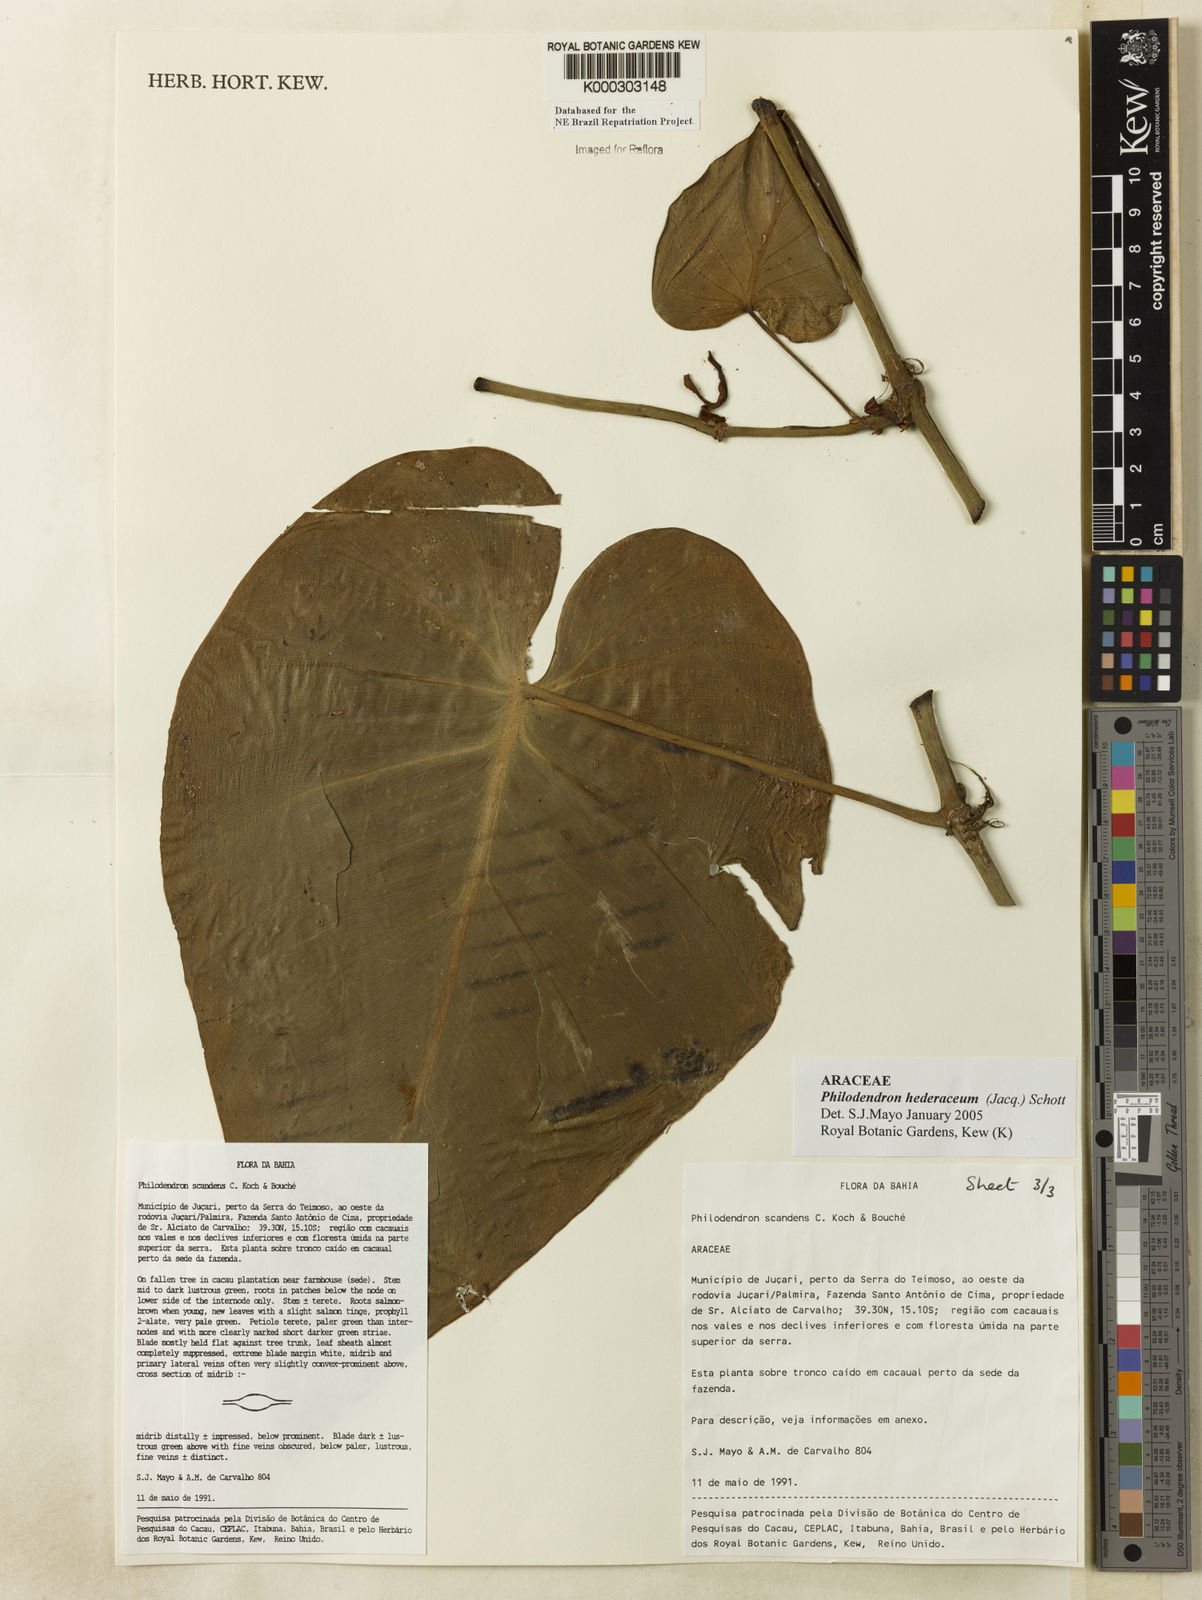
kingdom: Plantae
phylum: Tracheophyta
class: Liliopsida
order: Alismatales
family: Araceae
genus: Philodendron
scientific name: Philodendron hederaceum
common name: Vilevine
